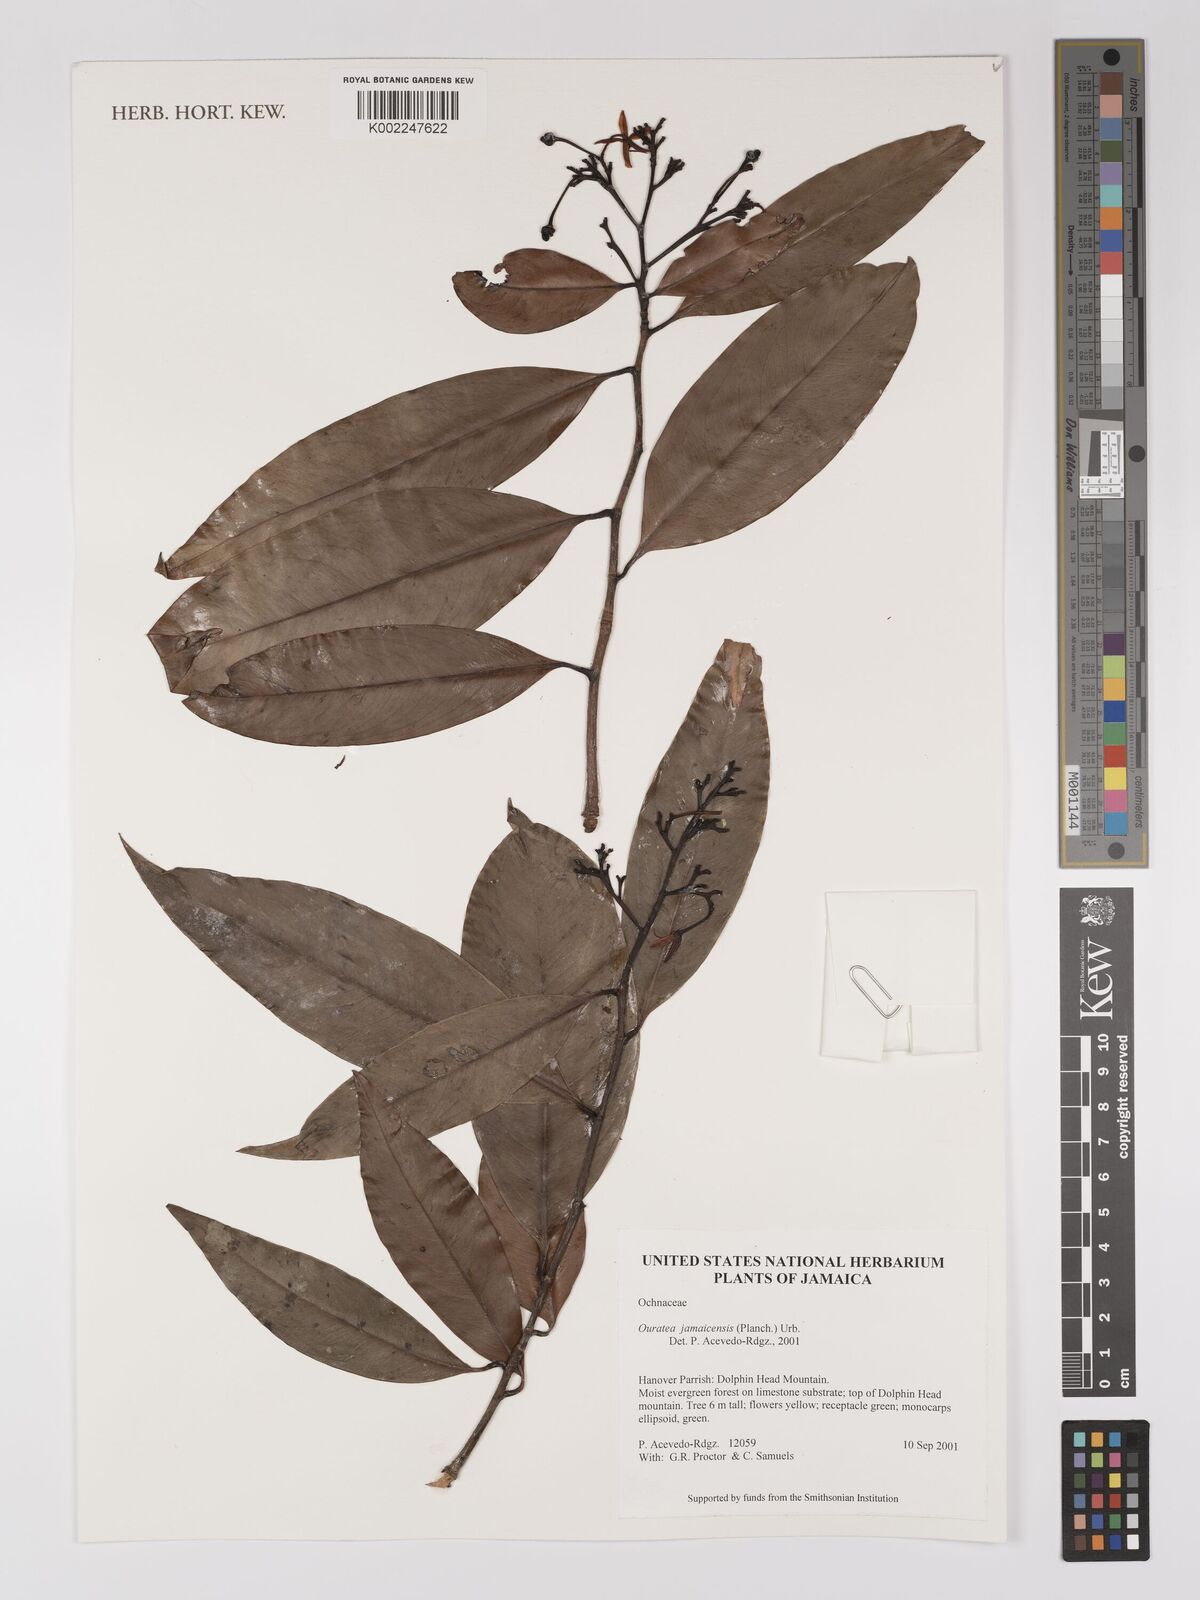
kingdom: Plantae
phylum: Tracheophyta
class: Magnoliopsida
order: Malpighiales
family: Ochnaceae
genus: Ouratea
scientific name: Ouratea jamaicensis
